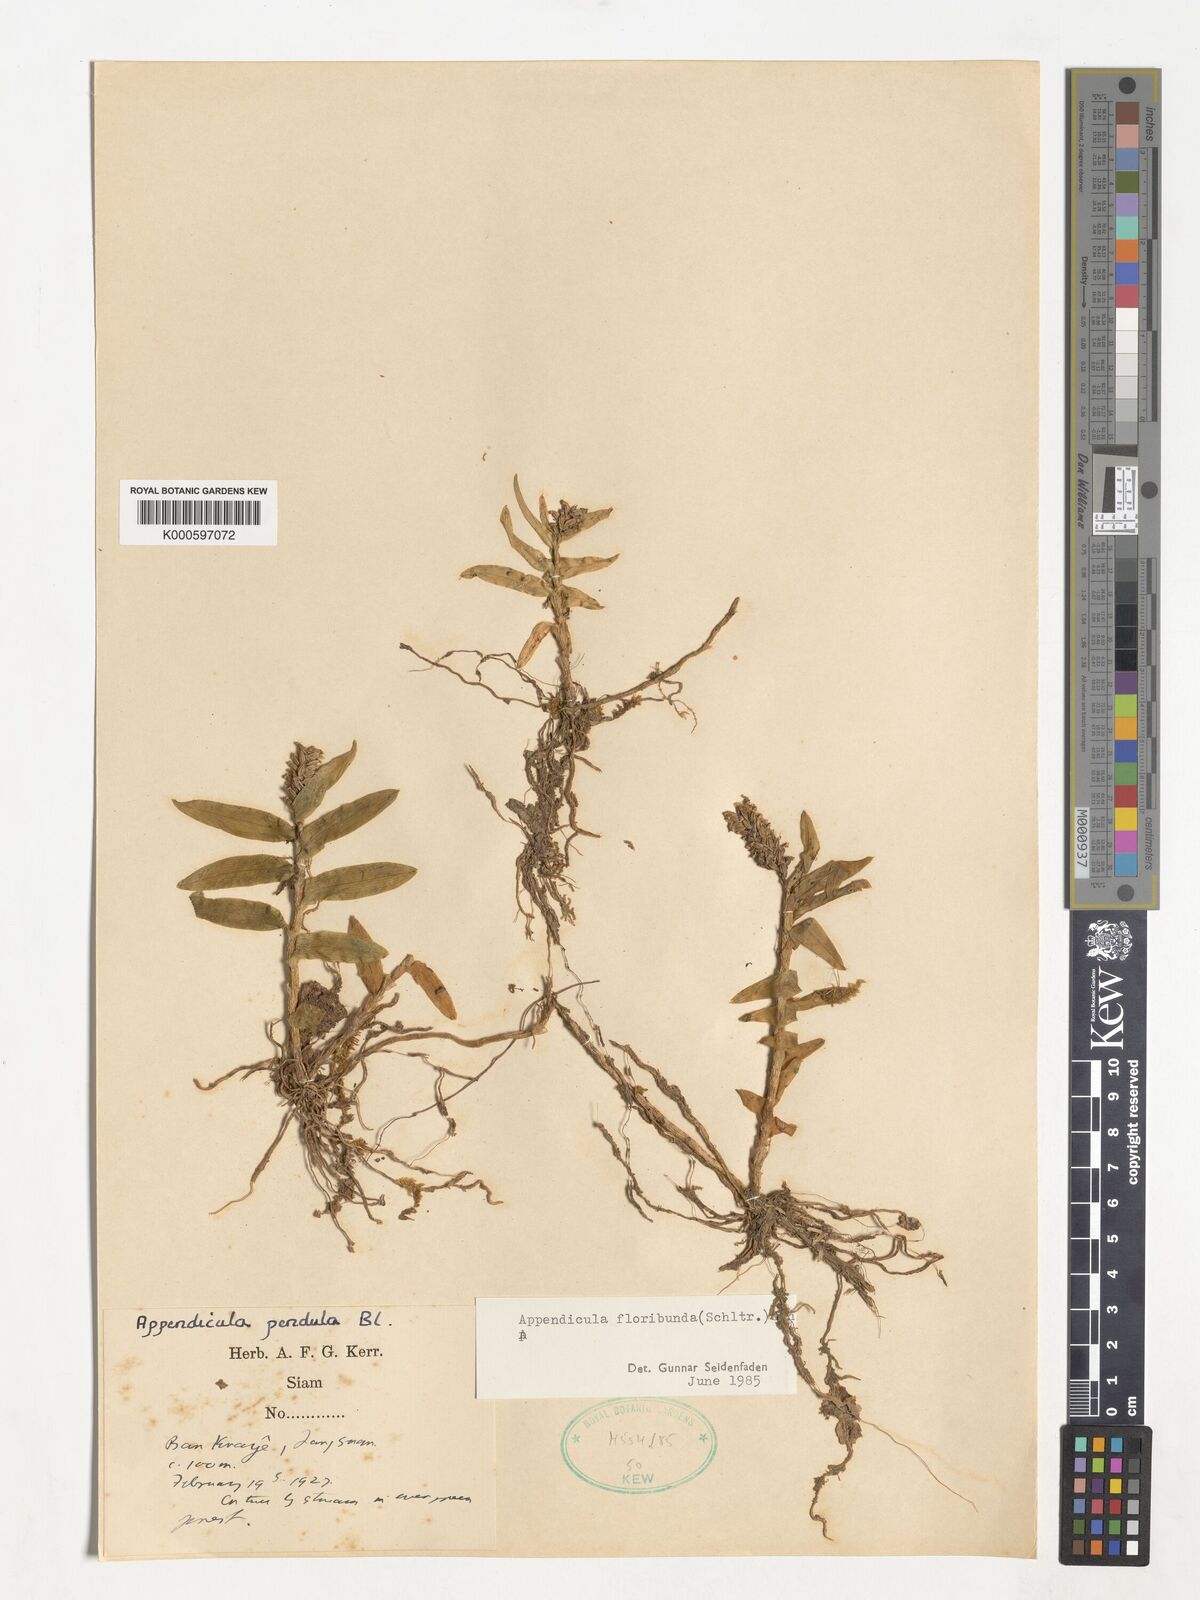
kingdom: Plantae
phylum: Tracheophyta
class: Liliopsida
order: Asparagales
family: Orchidaceae
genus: Appendicula
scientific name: Appendicula floribunda
